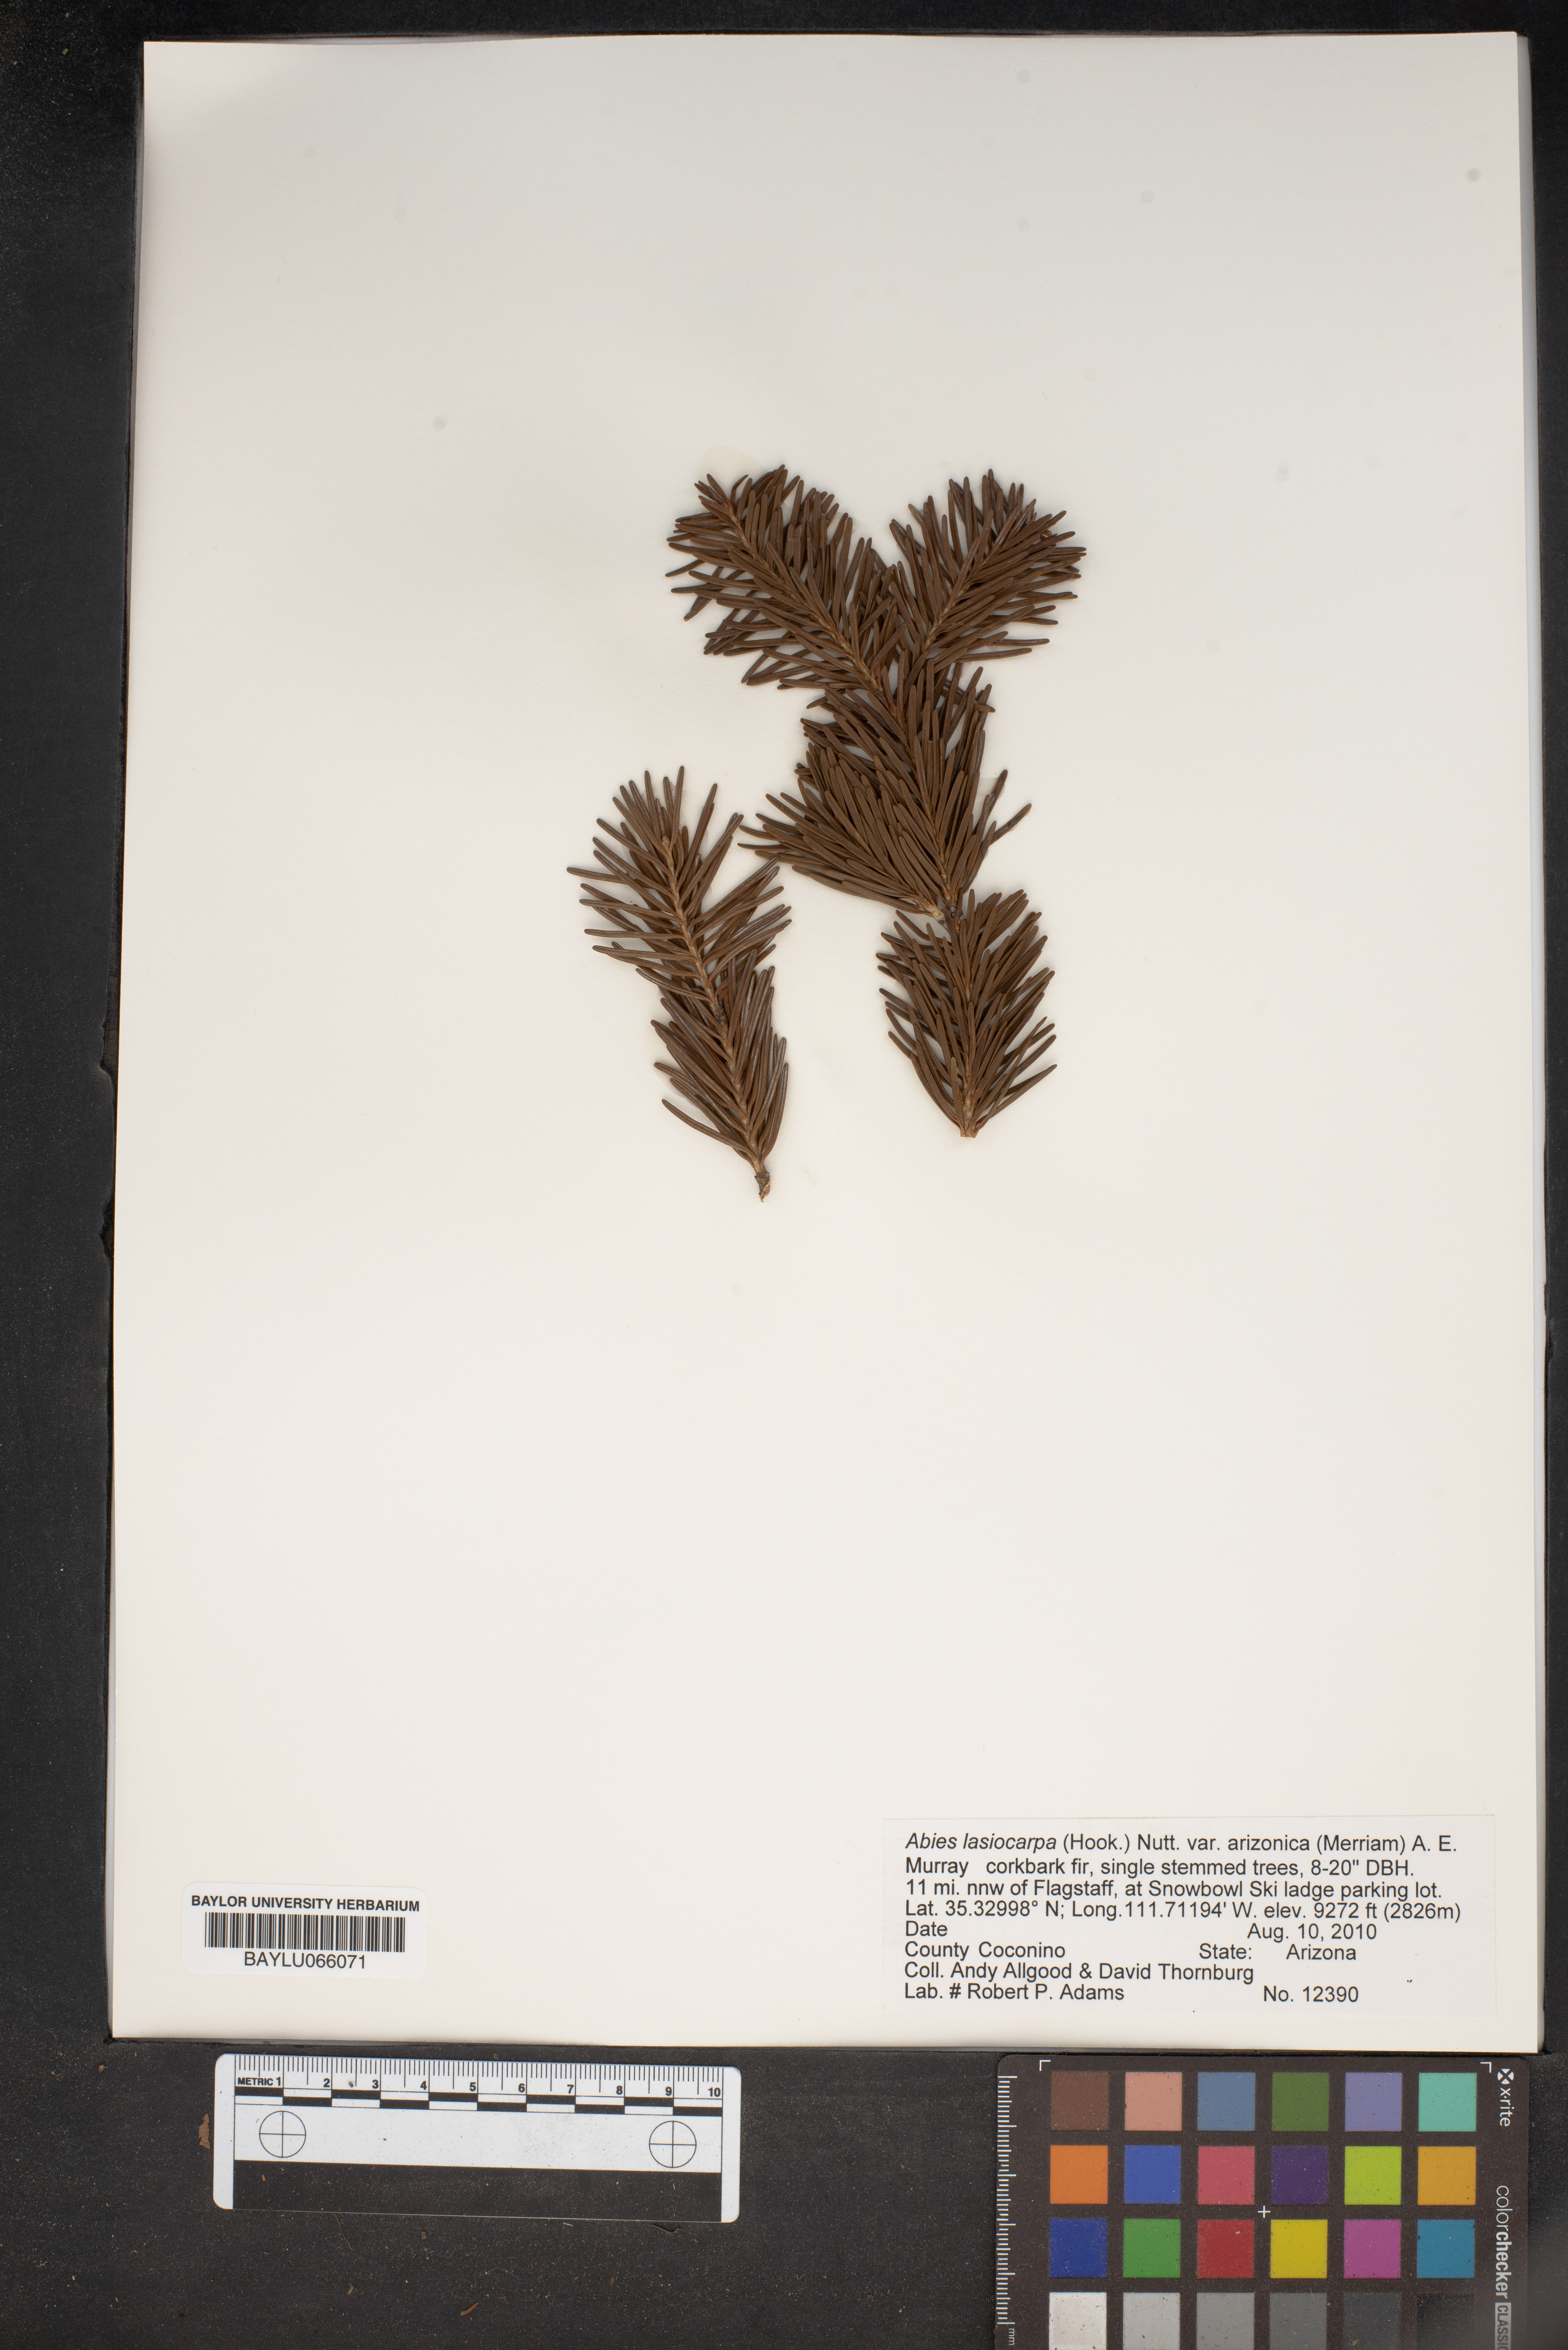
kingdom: Plantae
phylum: Tracheophyta
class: Pinopsida
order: Pinales
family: Pinaceae
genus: Abies
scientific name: Abies lasiocarpa
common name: Subalpine fir
